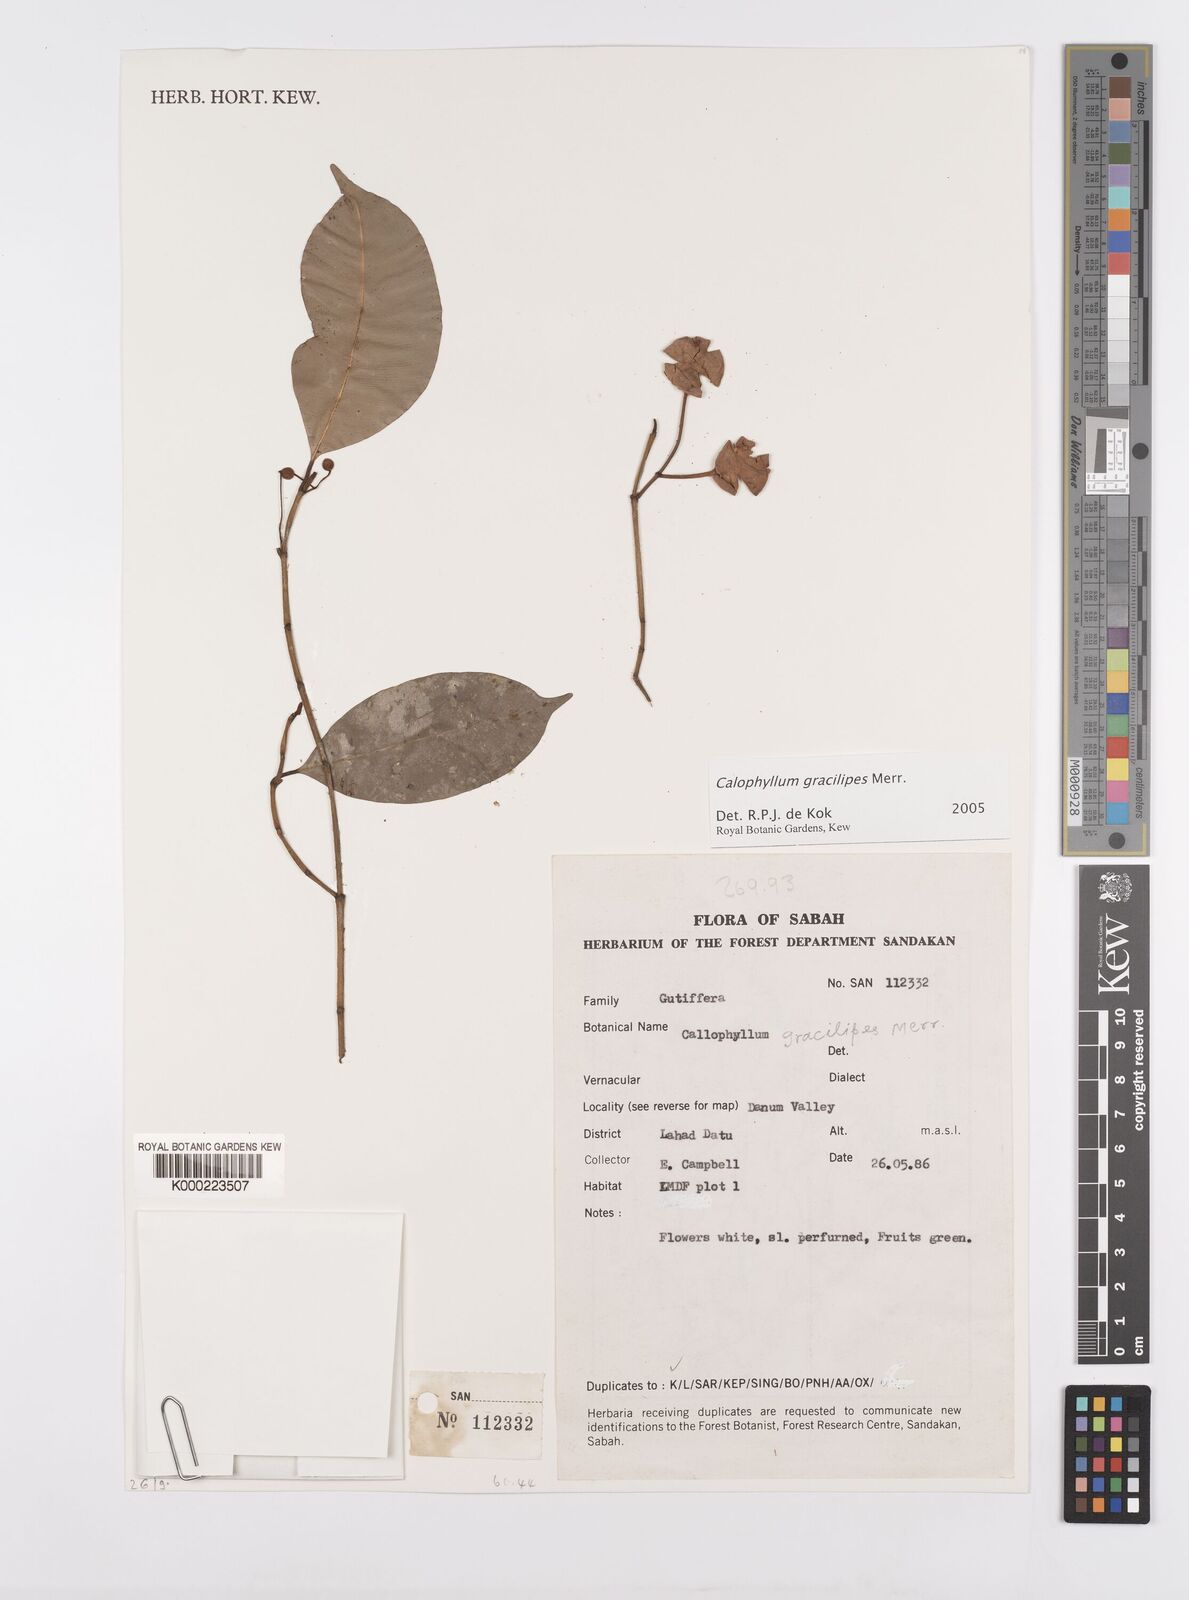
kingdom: Plantae
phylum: Tracheophyta
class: Magnoliopsida
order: Malpighiales
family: Calophyllaceae
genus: Calophyllum
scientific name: Calophyllum gracilipes
